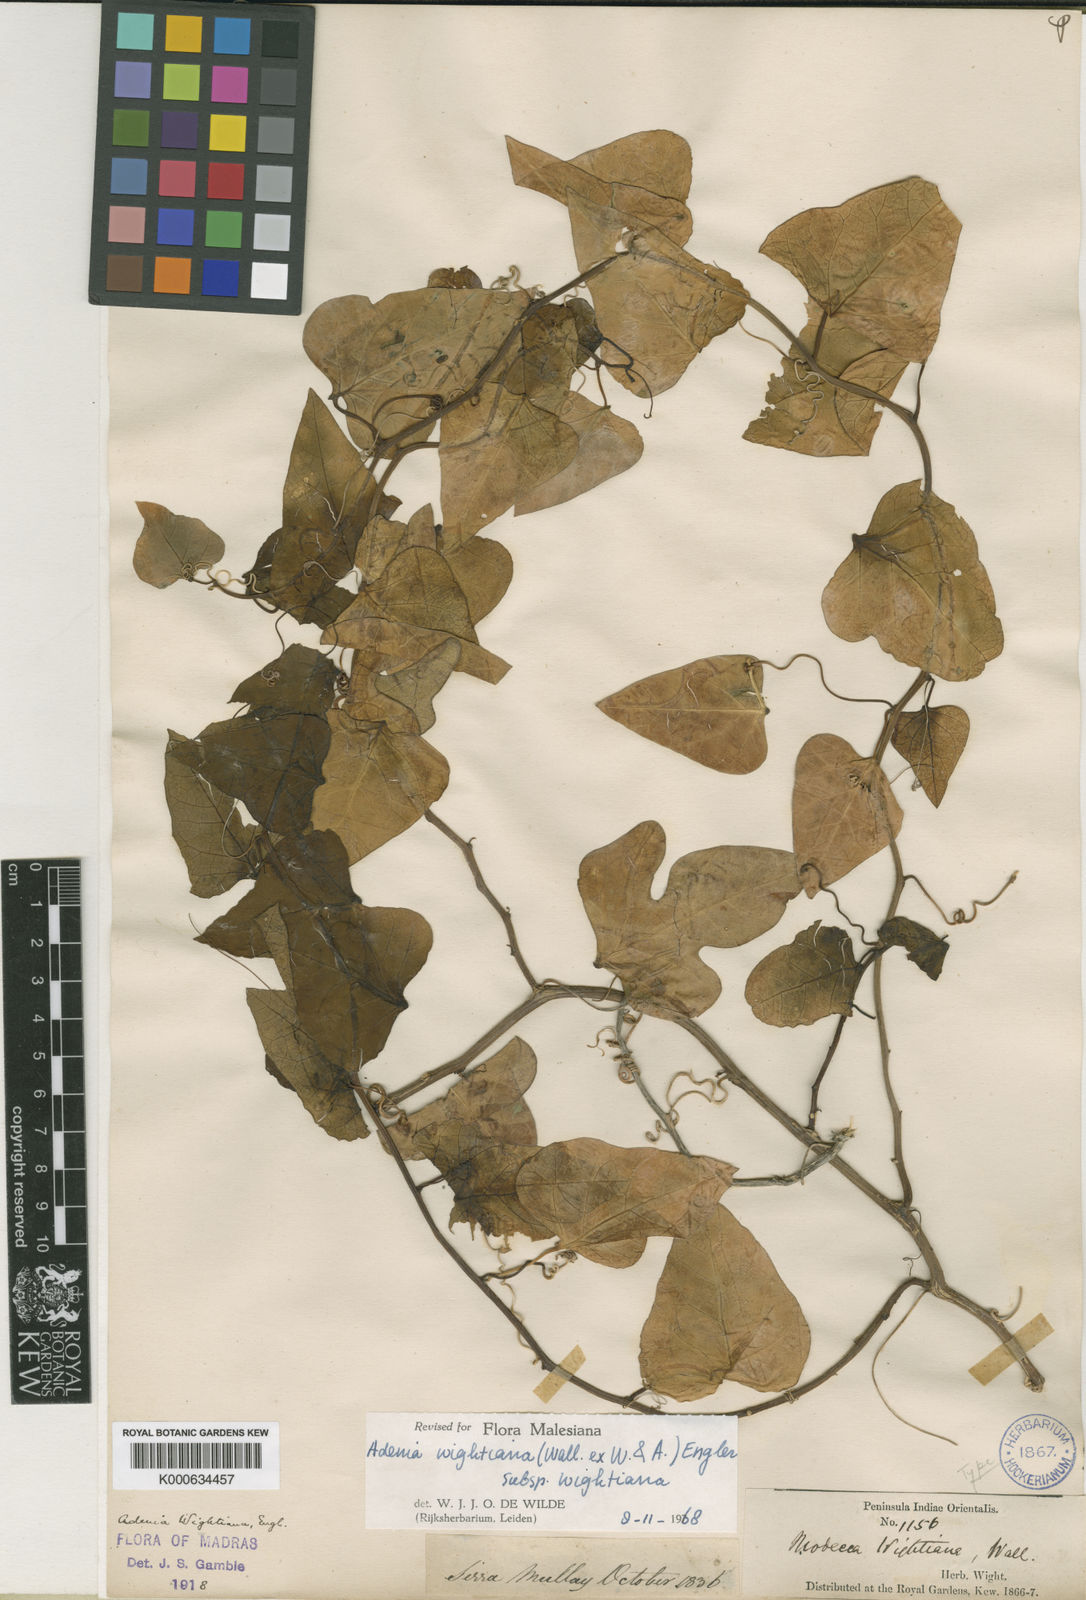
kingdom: Plantae
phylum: Tracheophyta
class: Magnoliopsida
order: Malpighiales
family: Passifloraceae
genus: Adenia
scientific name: Adenia wightiana
